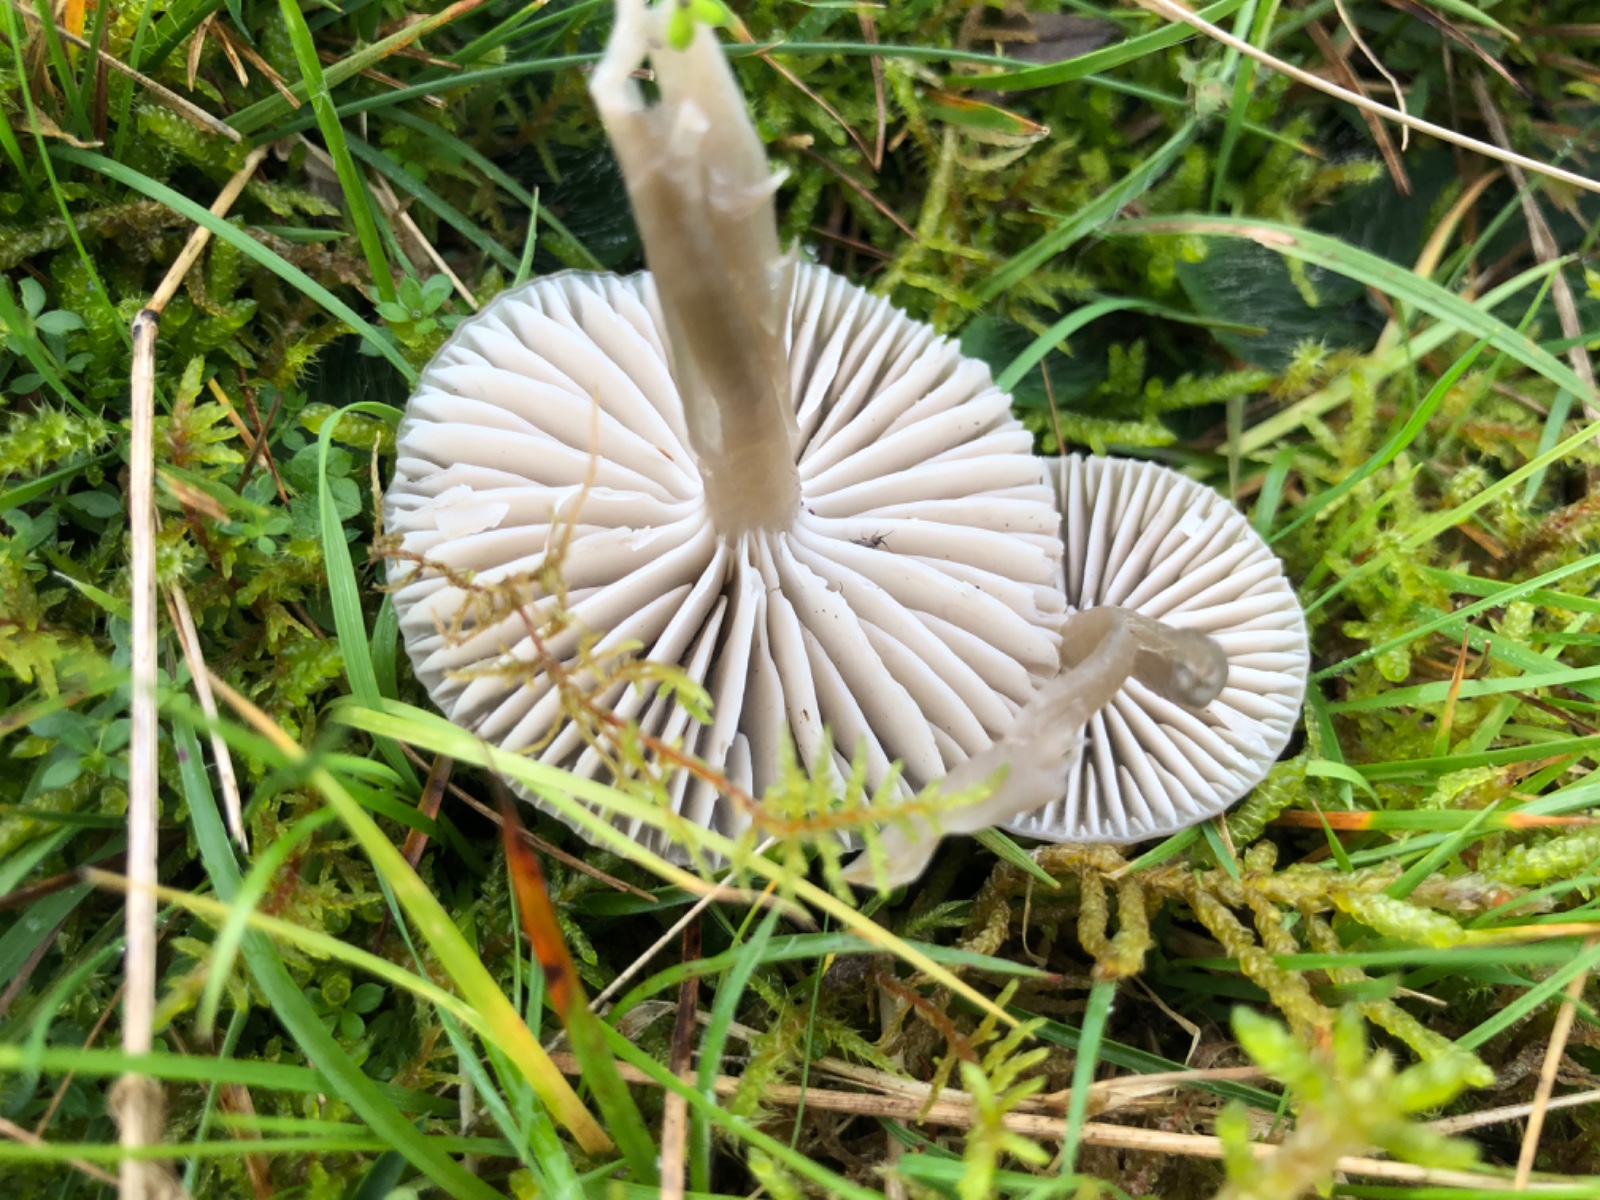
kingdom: Fungi
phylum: Basidiomycota
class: Agaricomycetes
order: Agaricales
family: Hygrophoraceae
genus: Gliophorus
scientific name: Gliophorus irrigatus
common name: slimet vokshat
